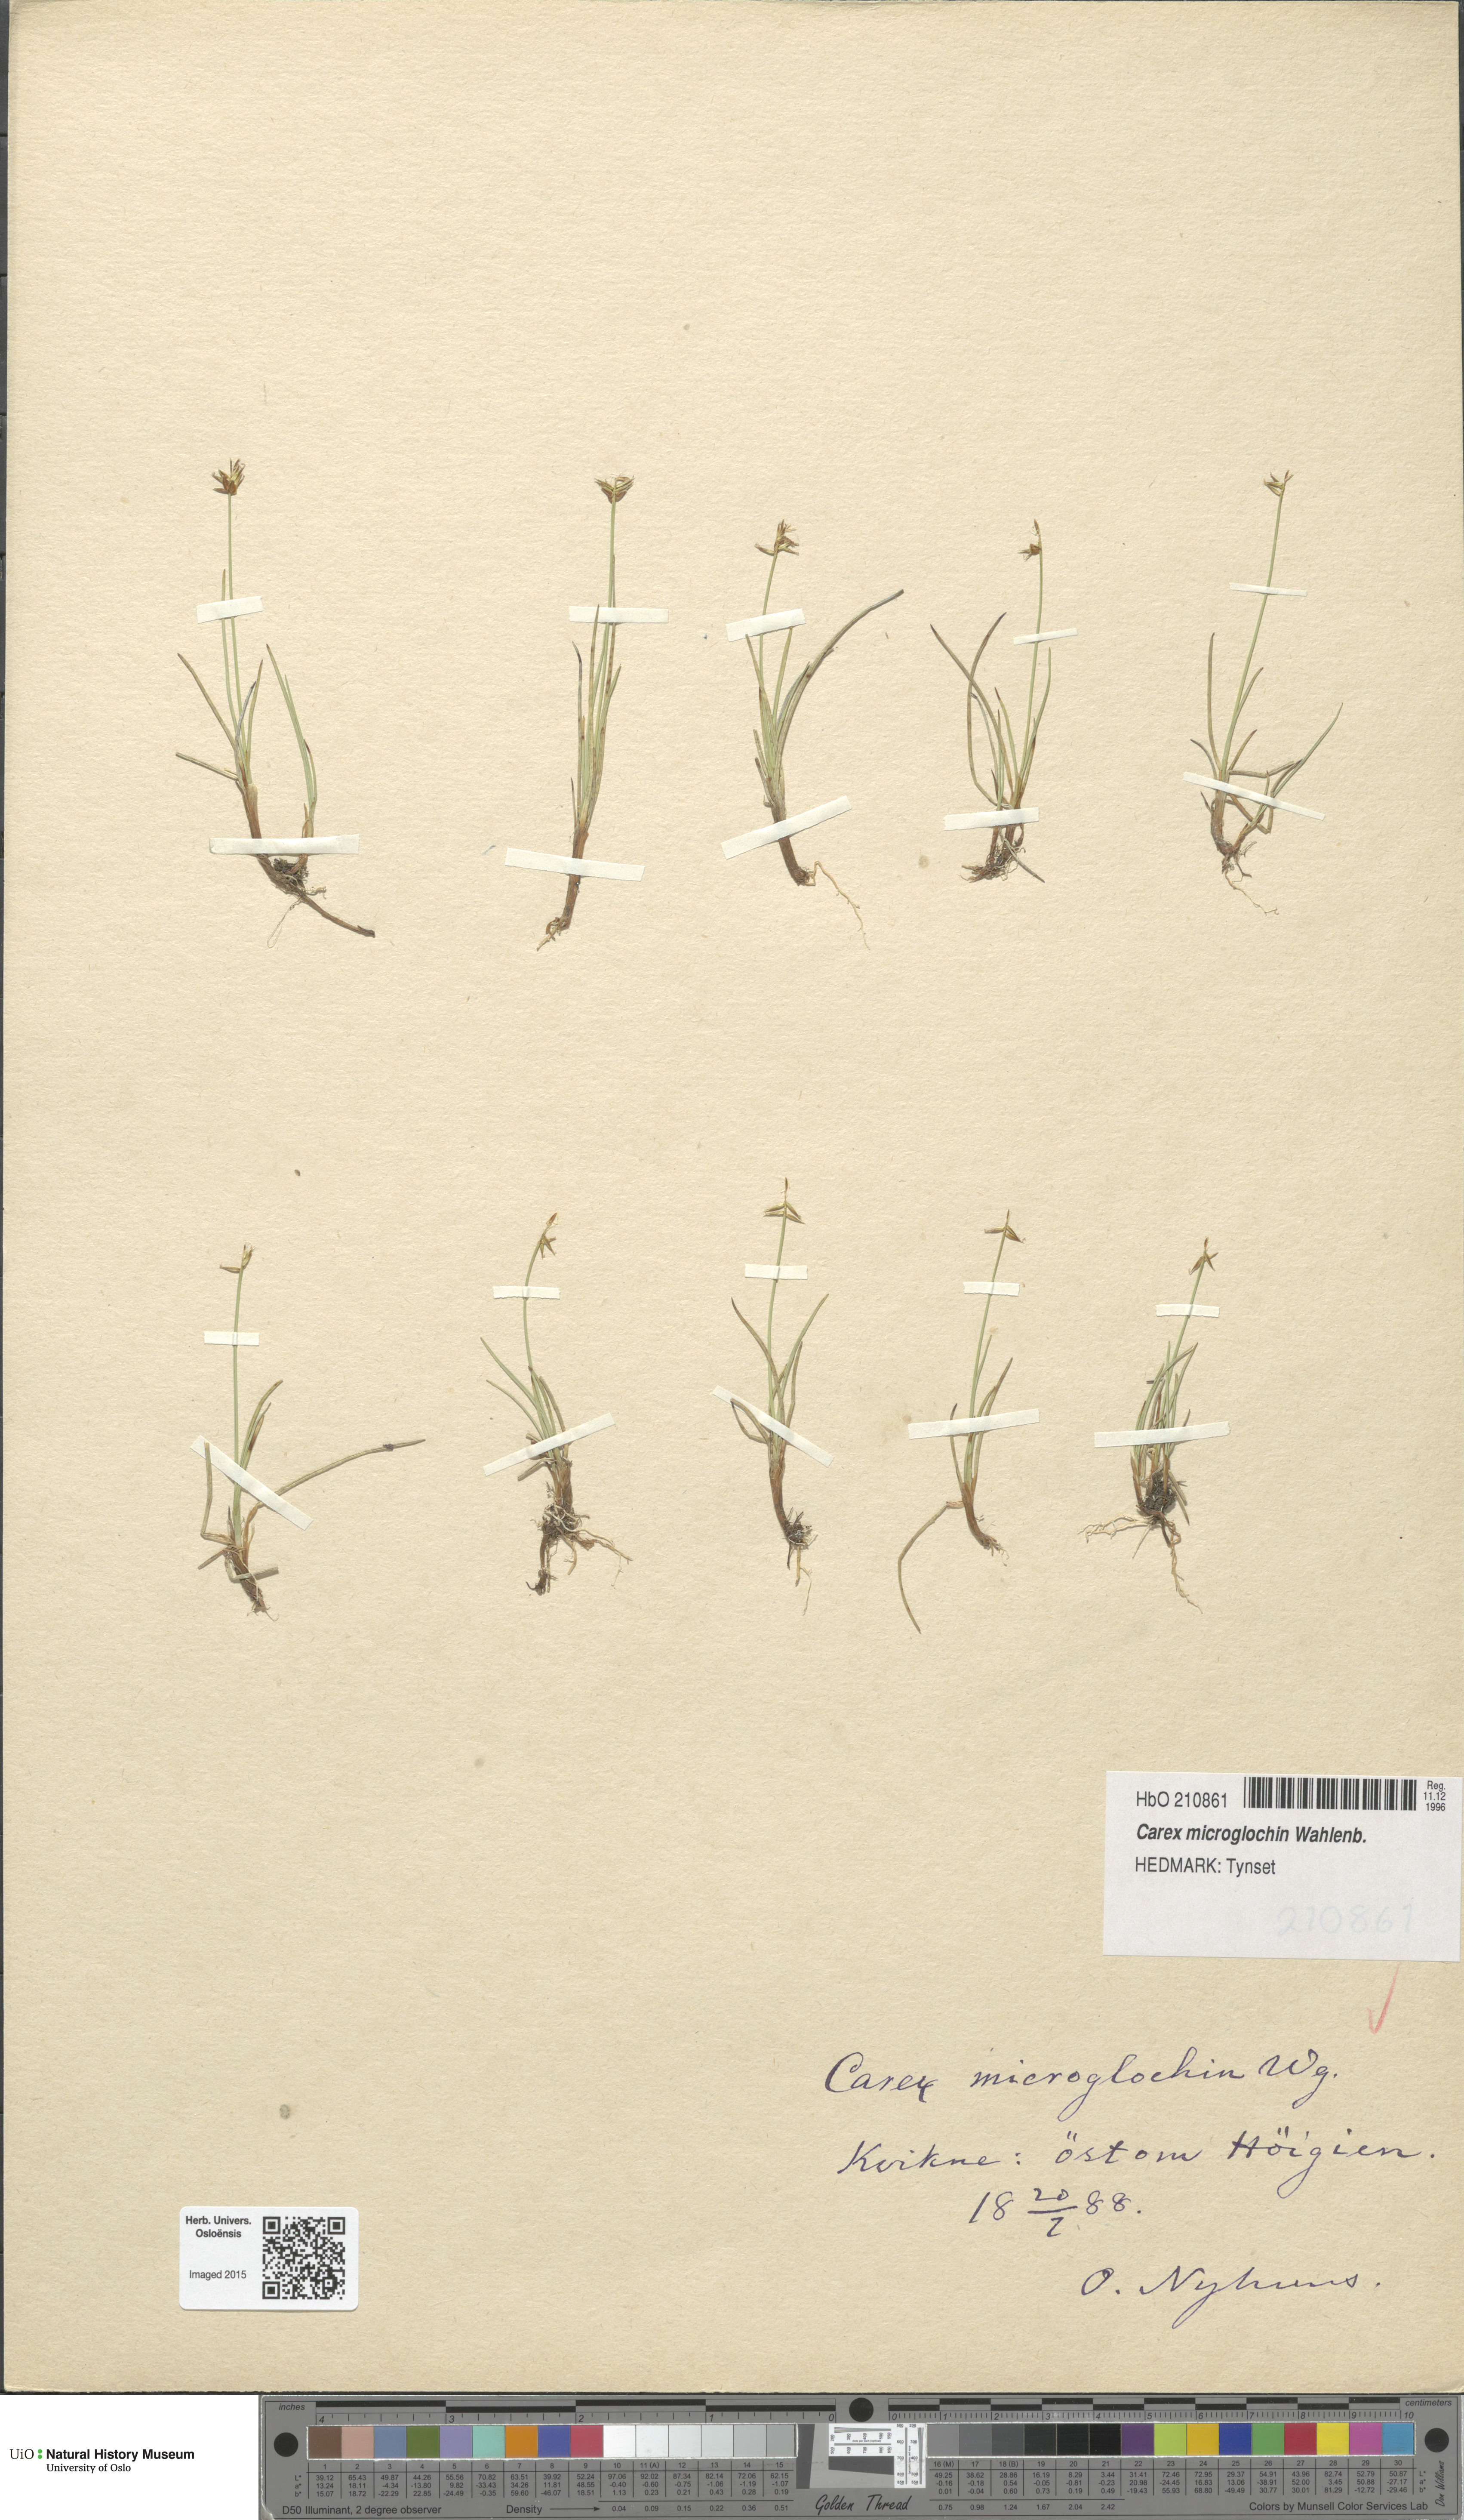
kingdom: Plantae
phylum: Tracheophyta
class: Liliopsida
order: Poales
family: Cyperaceae
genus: Carex
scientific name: Carex microglochin
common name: Bristle sedge
